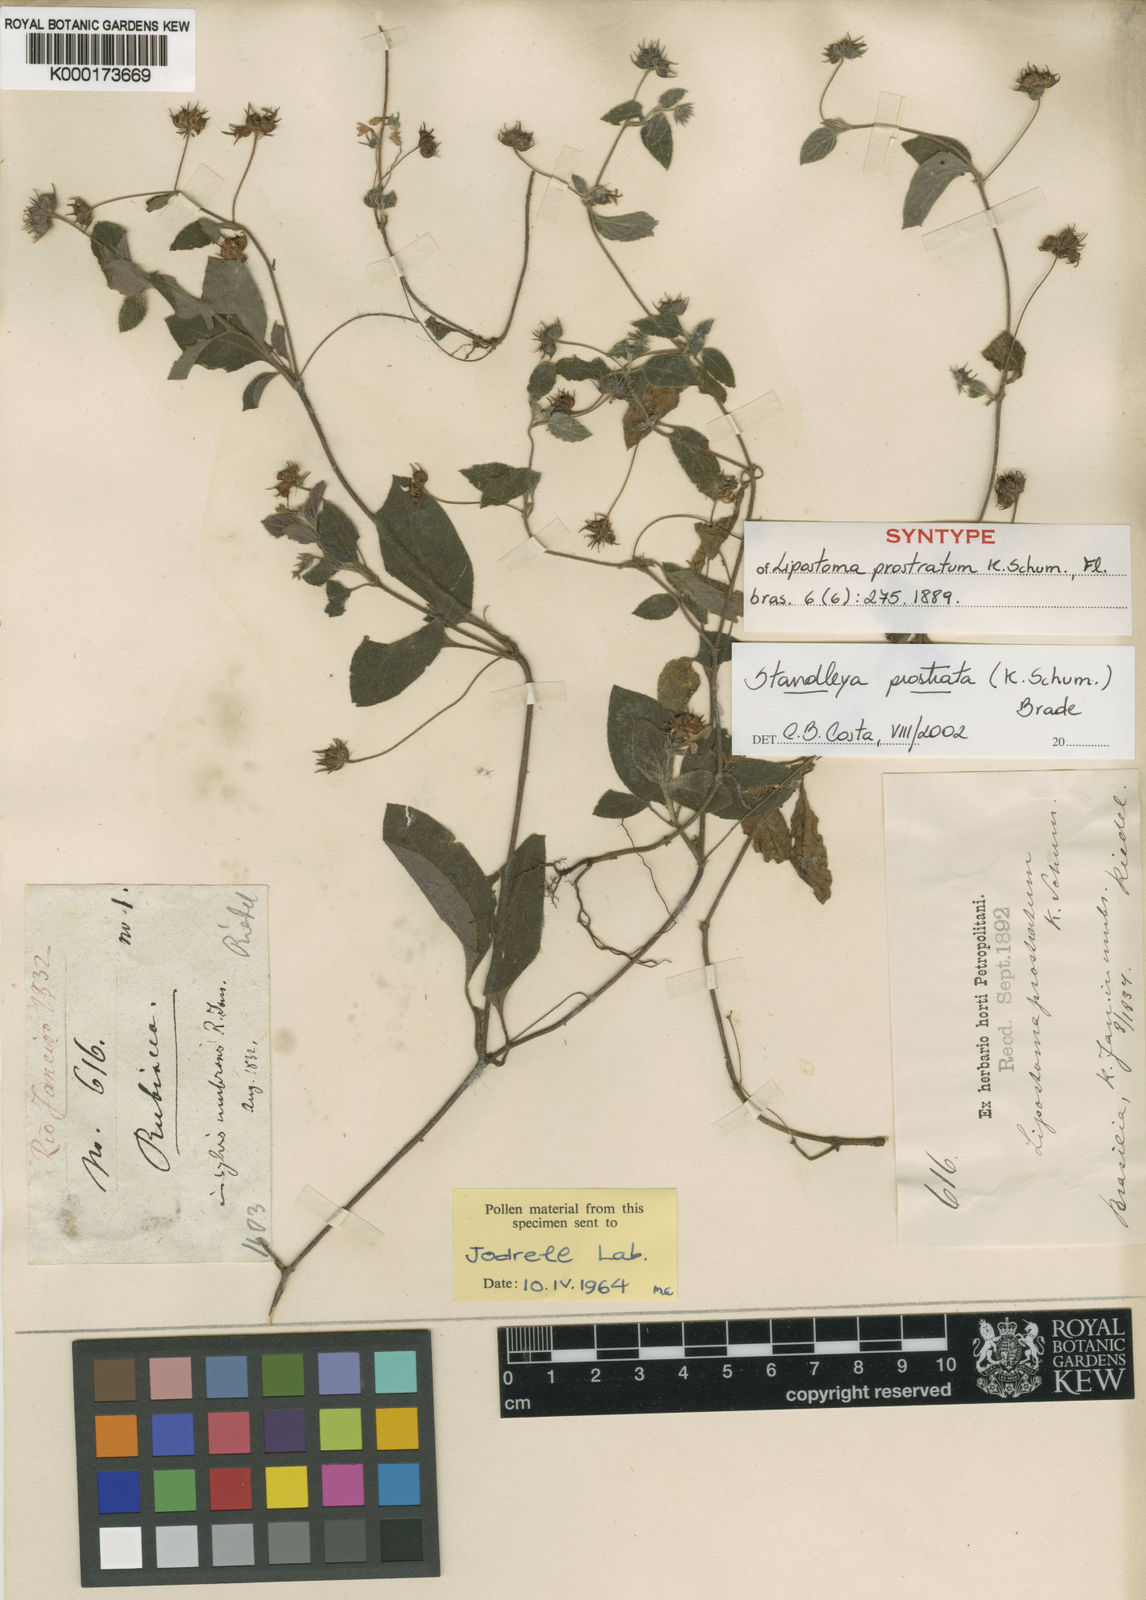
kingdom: Plantae
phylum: Tracheophyta
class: Magnoliopsida
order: Gentianales
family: Rubiaceae
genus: Standleya
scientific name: Standleya prostrata
